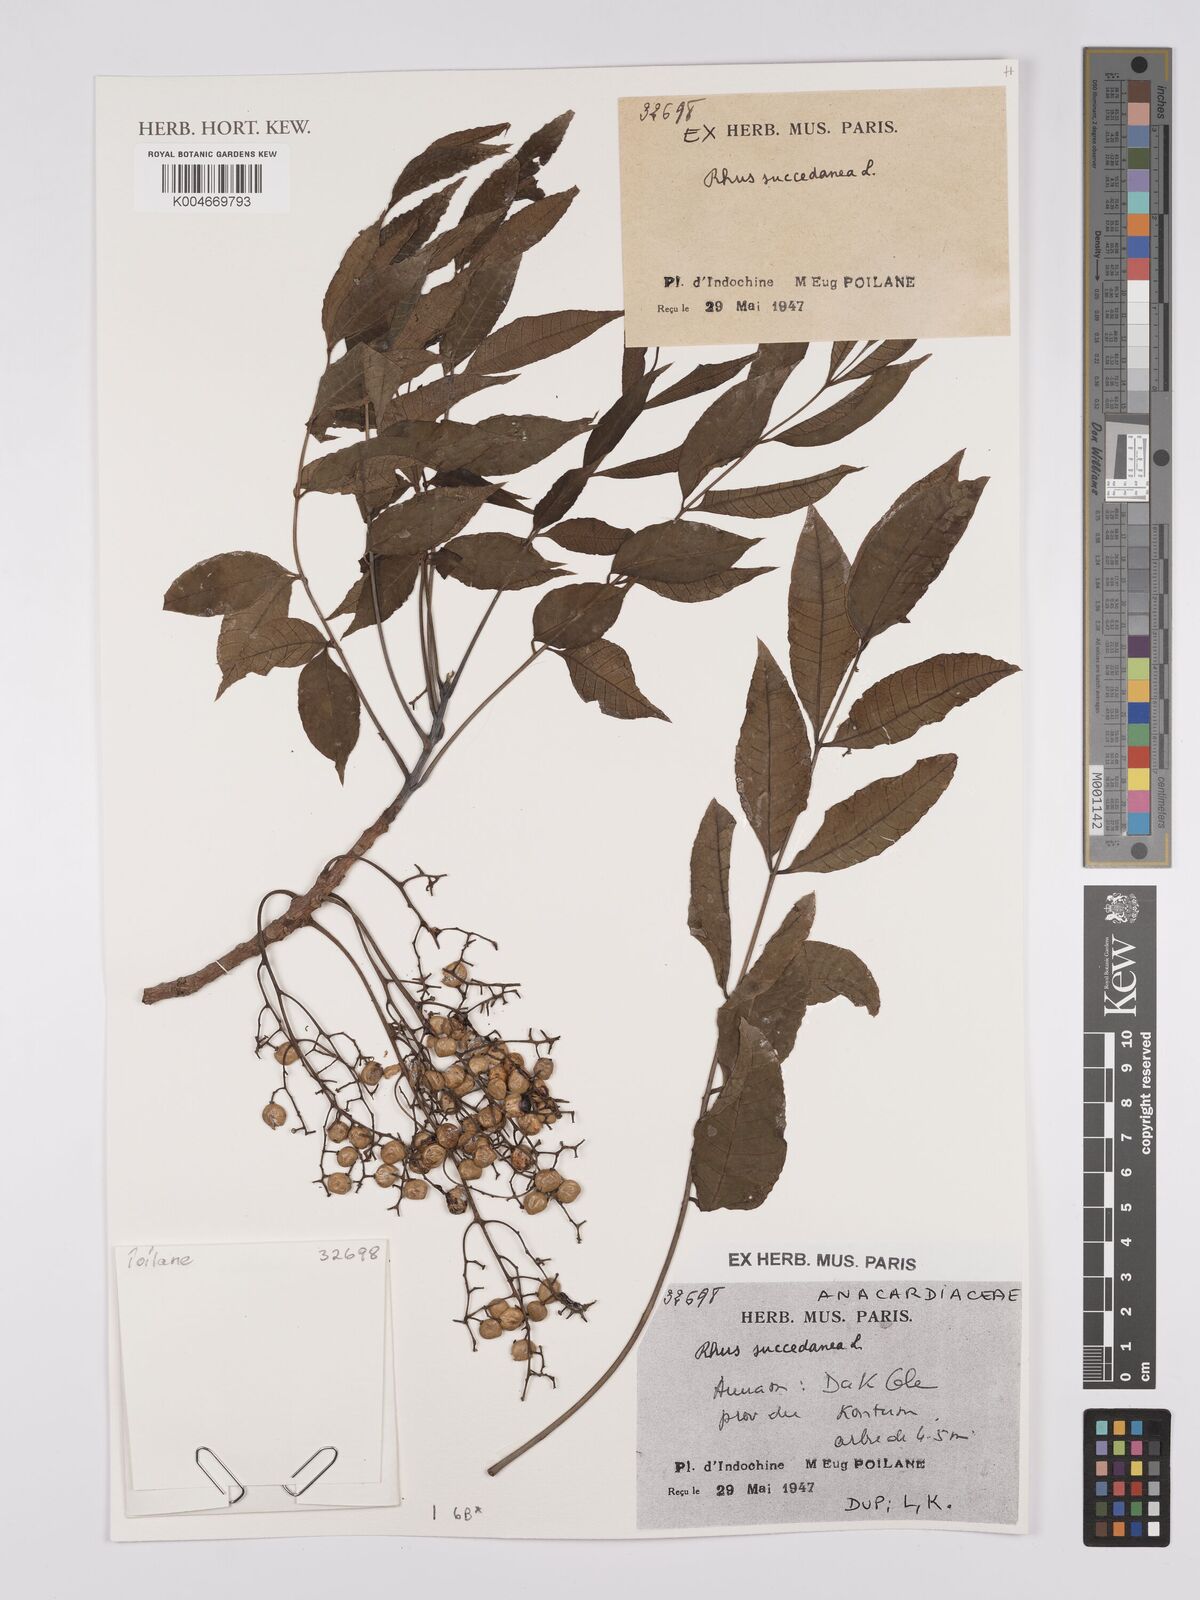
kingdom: Plantae
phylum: Tracheophyta
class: Magnoliopsida
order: Sapindales
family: Anacardiaceae
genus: Toxicodendron
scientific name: Toxicodendron succedaneum
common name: Wax tree
